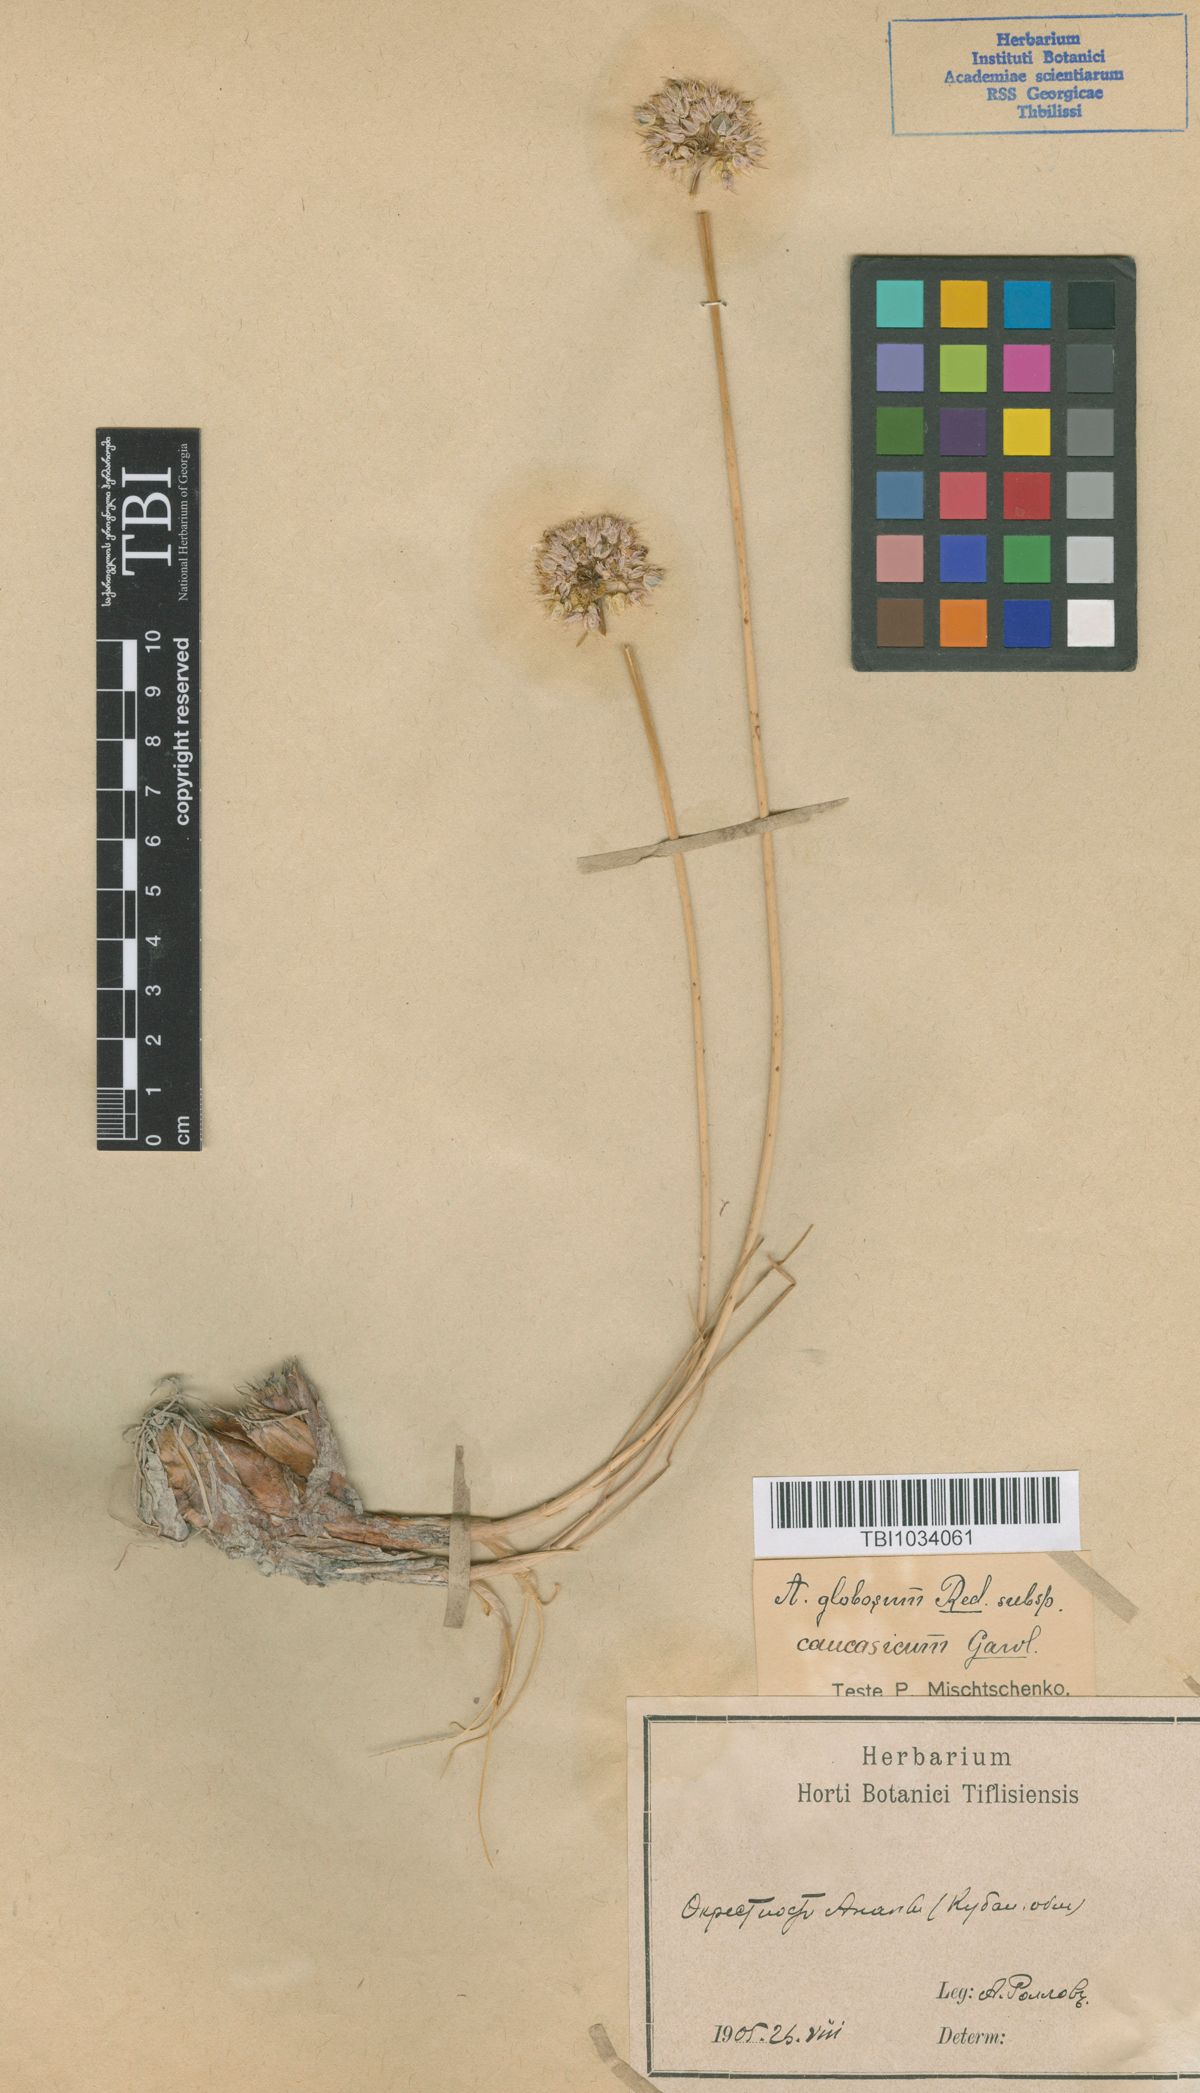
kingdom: Plantae
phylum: Tracheophyta
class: Liliopsida
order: Asparagales
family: Amaryllidaceae
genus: Allium
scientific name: Allium saxatile
